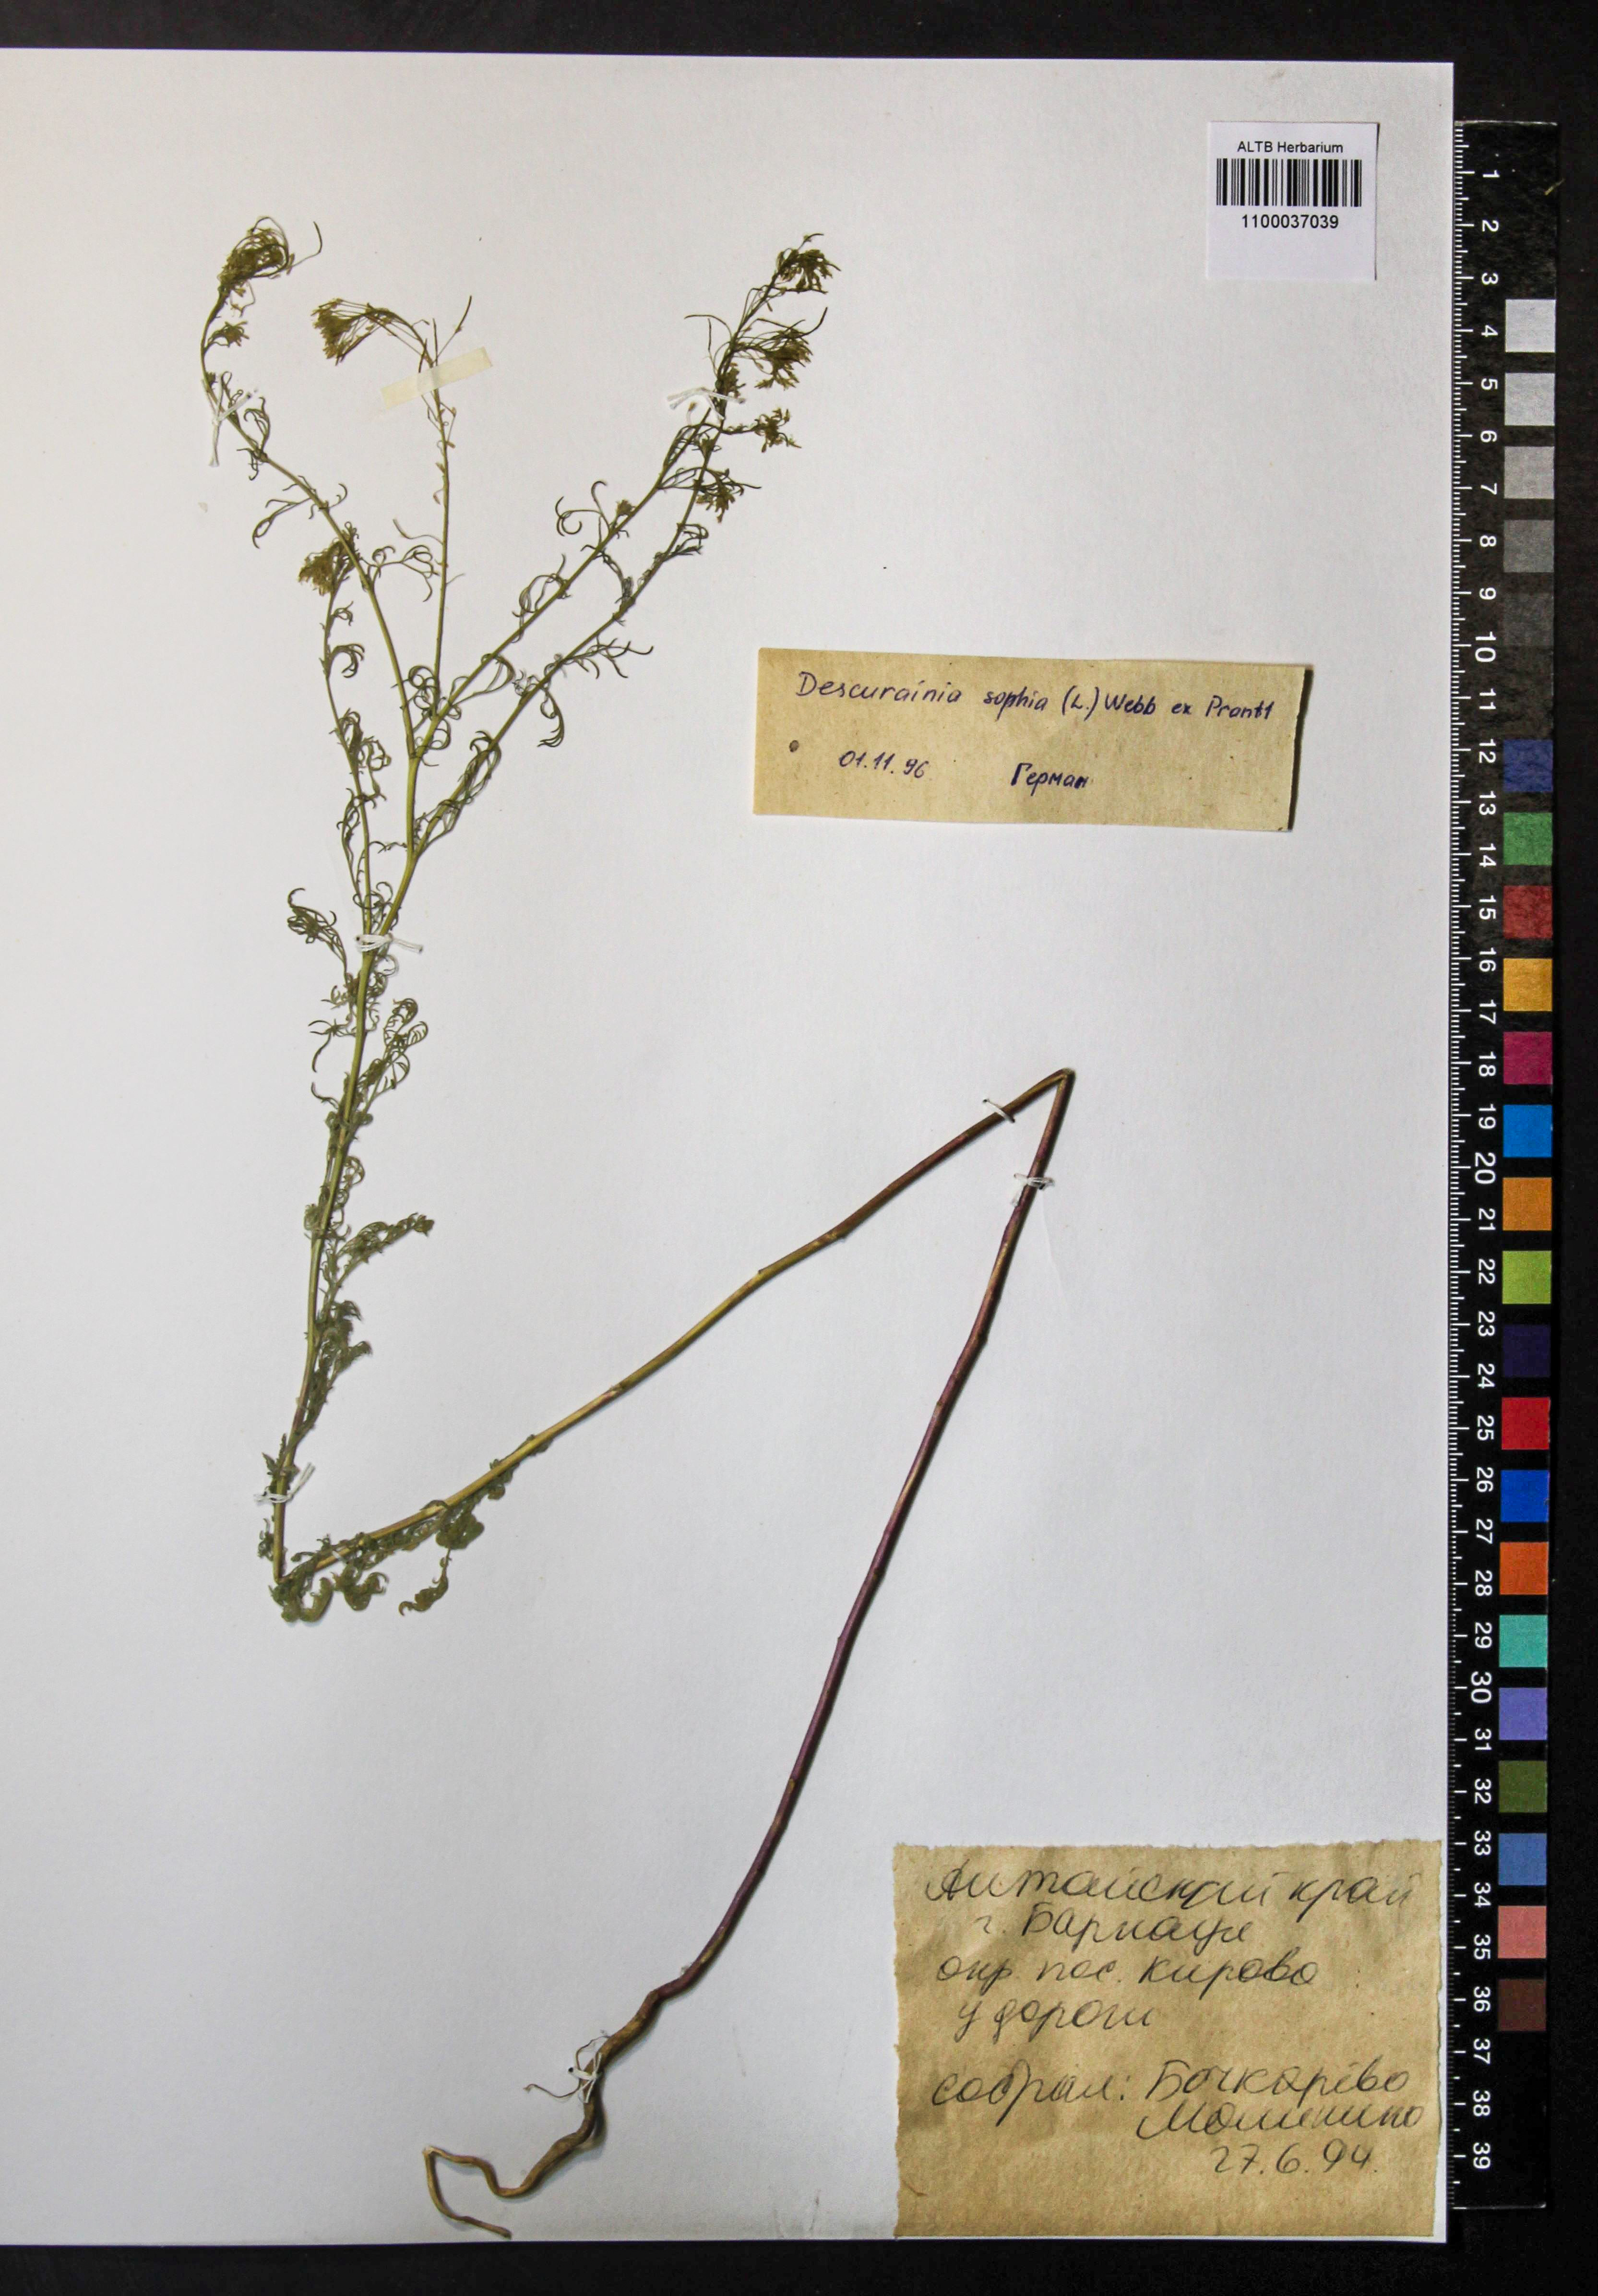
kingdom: Plantae
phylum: Tracheophyta
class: Magnoliopsida
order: Brassicales
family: Brassicaceae
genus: Descurainia
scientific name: Descurainia sophia
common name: Flixweed
